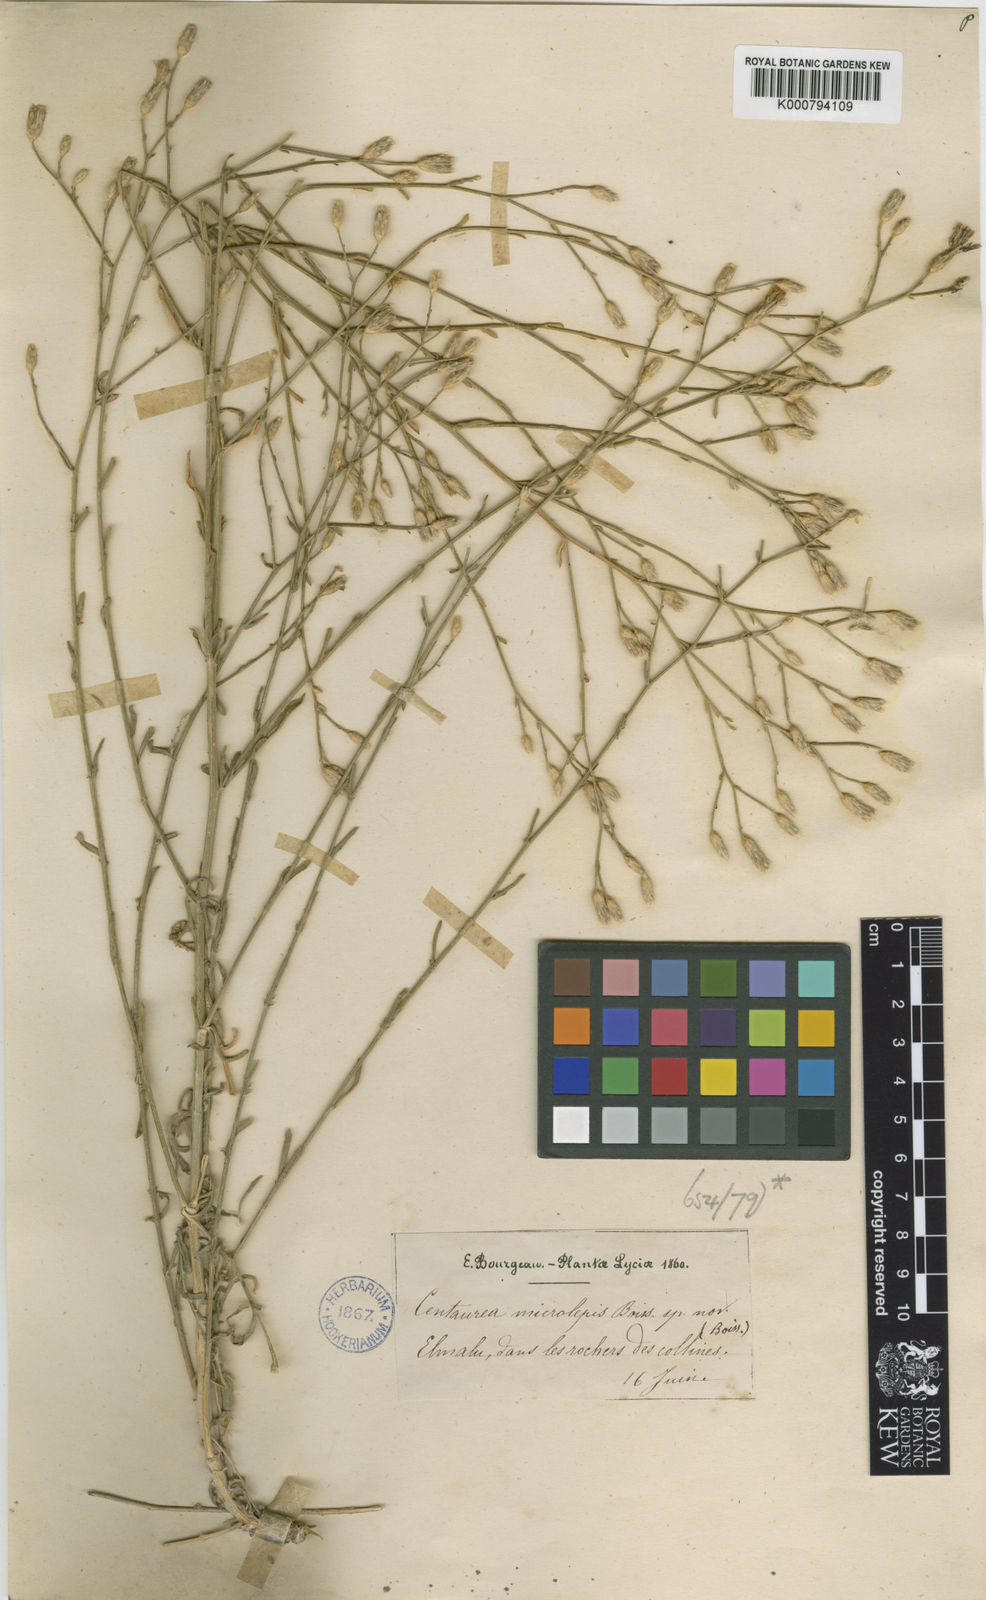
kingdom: Plantae
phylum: Tracheophyta
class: Magnoliopsida
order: Asterales
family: Asteraceae
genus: Centaurea
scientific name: Centaurea cariensis
